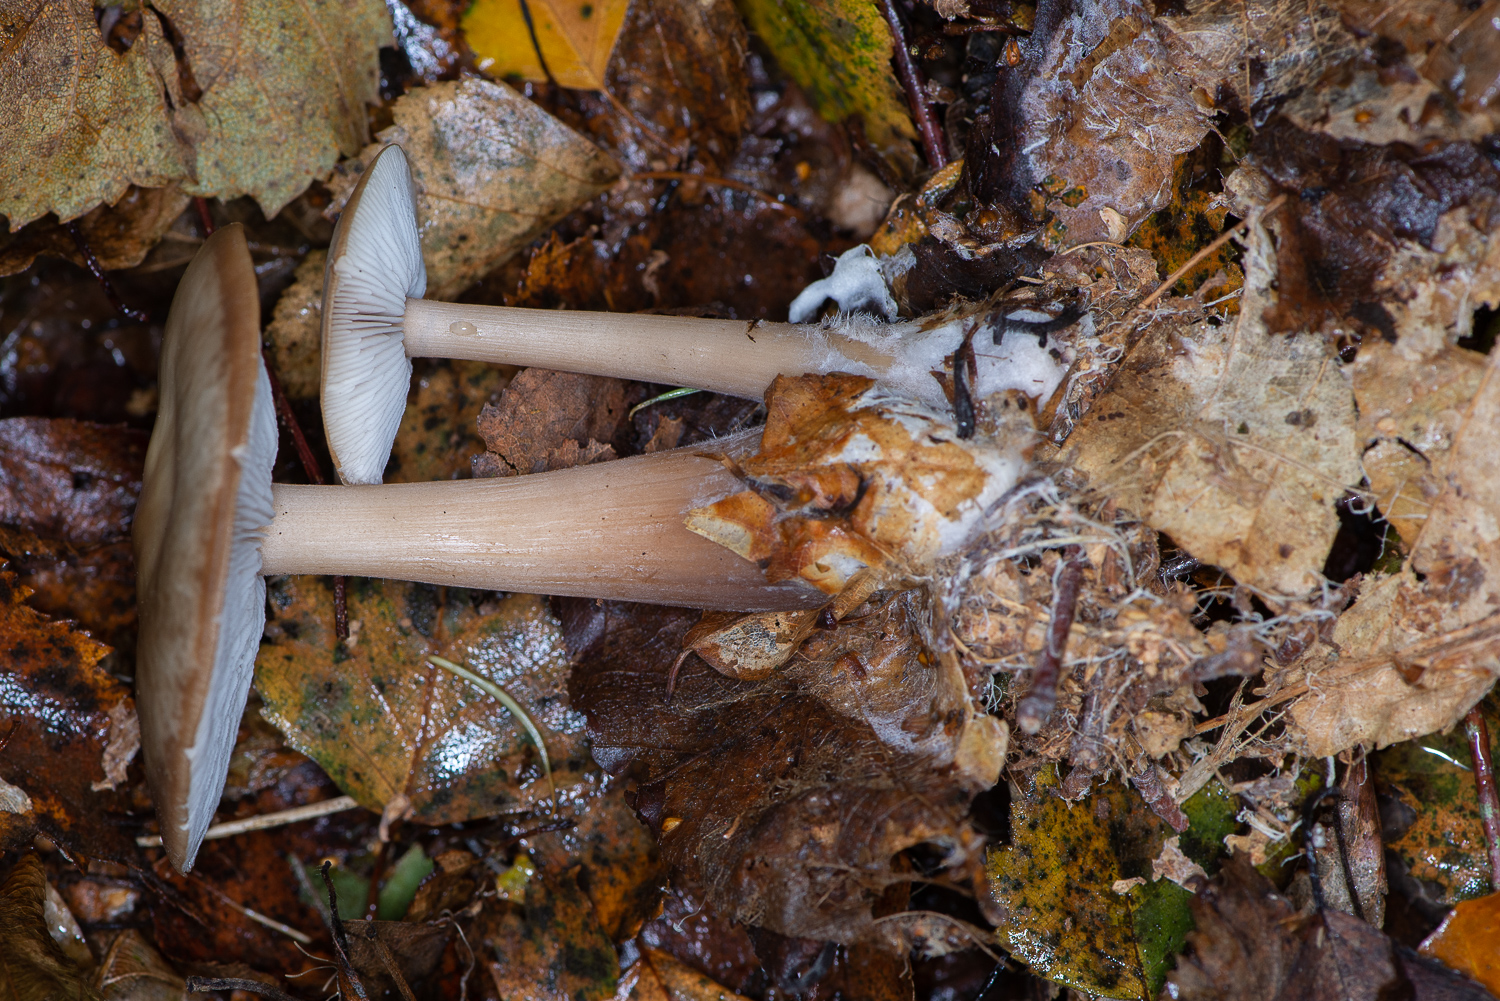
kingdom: Fungi
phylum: Basidiomycota
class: Agaricomycetes
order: Agaricales
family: Omphalotaceae
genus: Rhodocollybia
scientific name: Rhodocollybia asema
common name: horngrå fladhat
